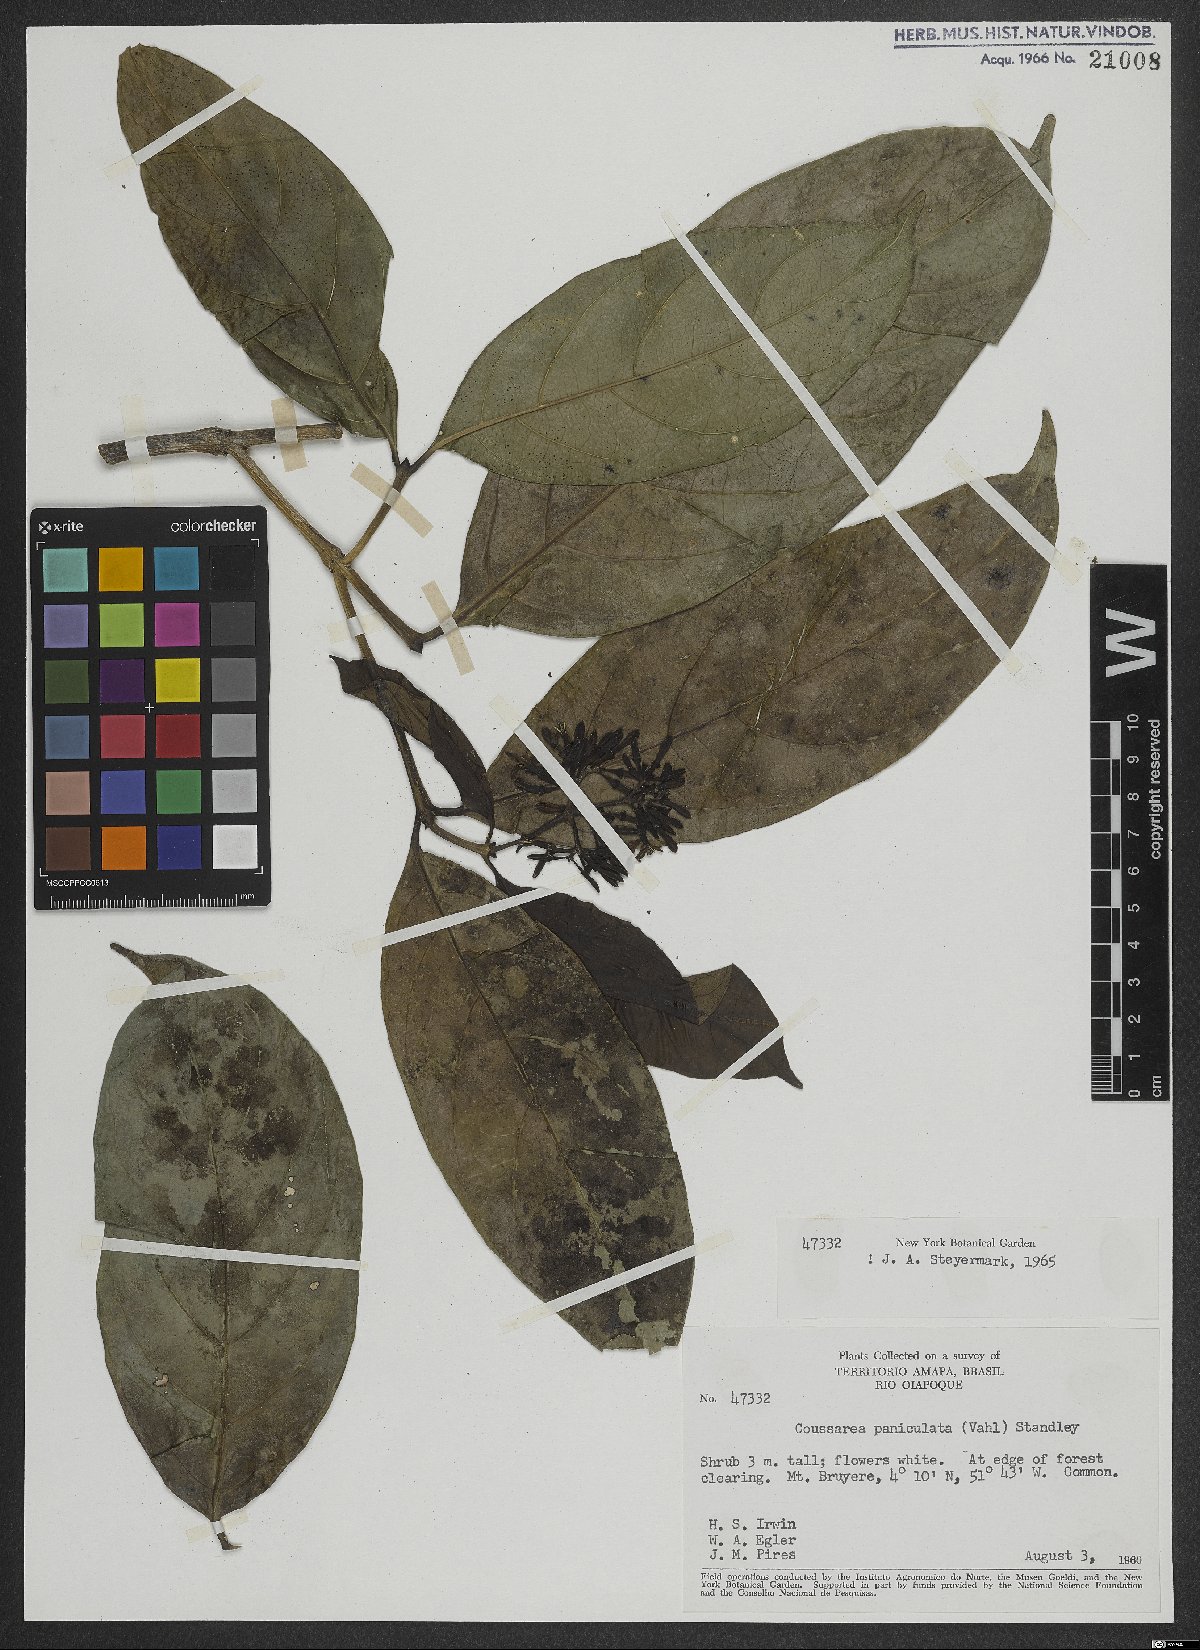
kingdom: Plantae
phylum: Tracheophyta
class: Magnoliopsida
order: Gentianales
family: Rubiaceae
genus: Coussarea
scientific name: Coussarea paniculata
